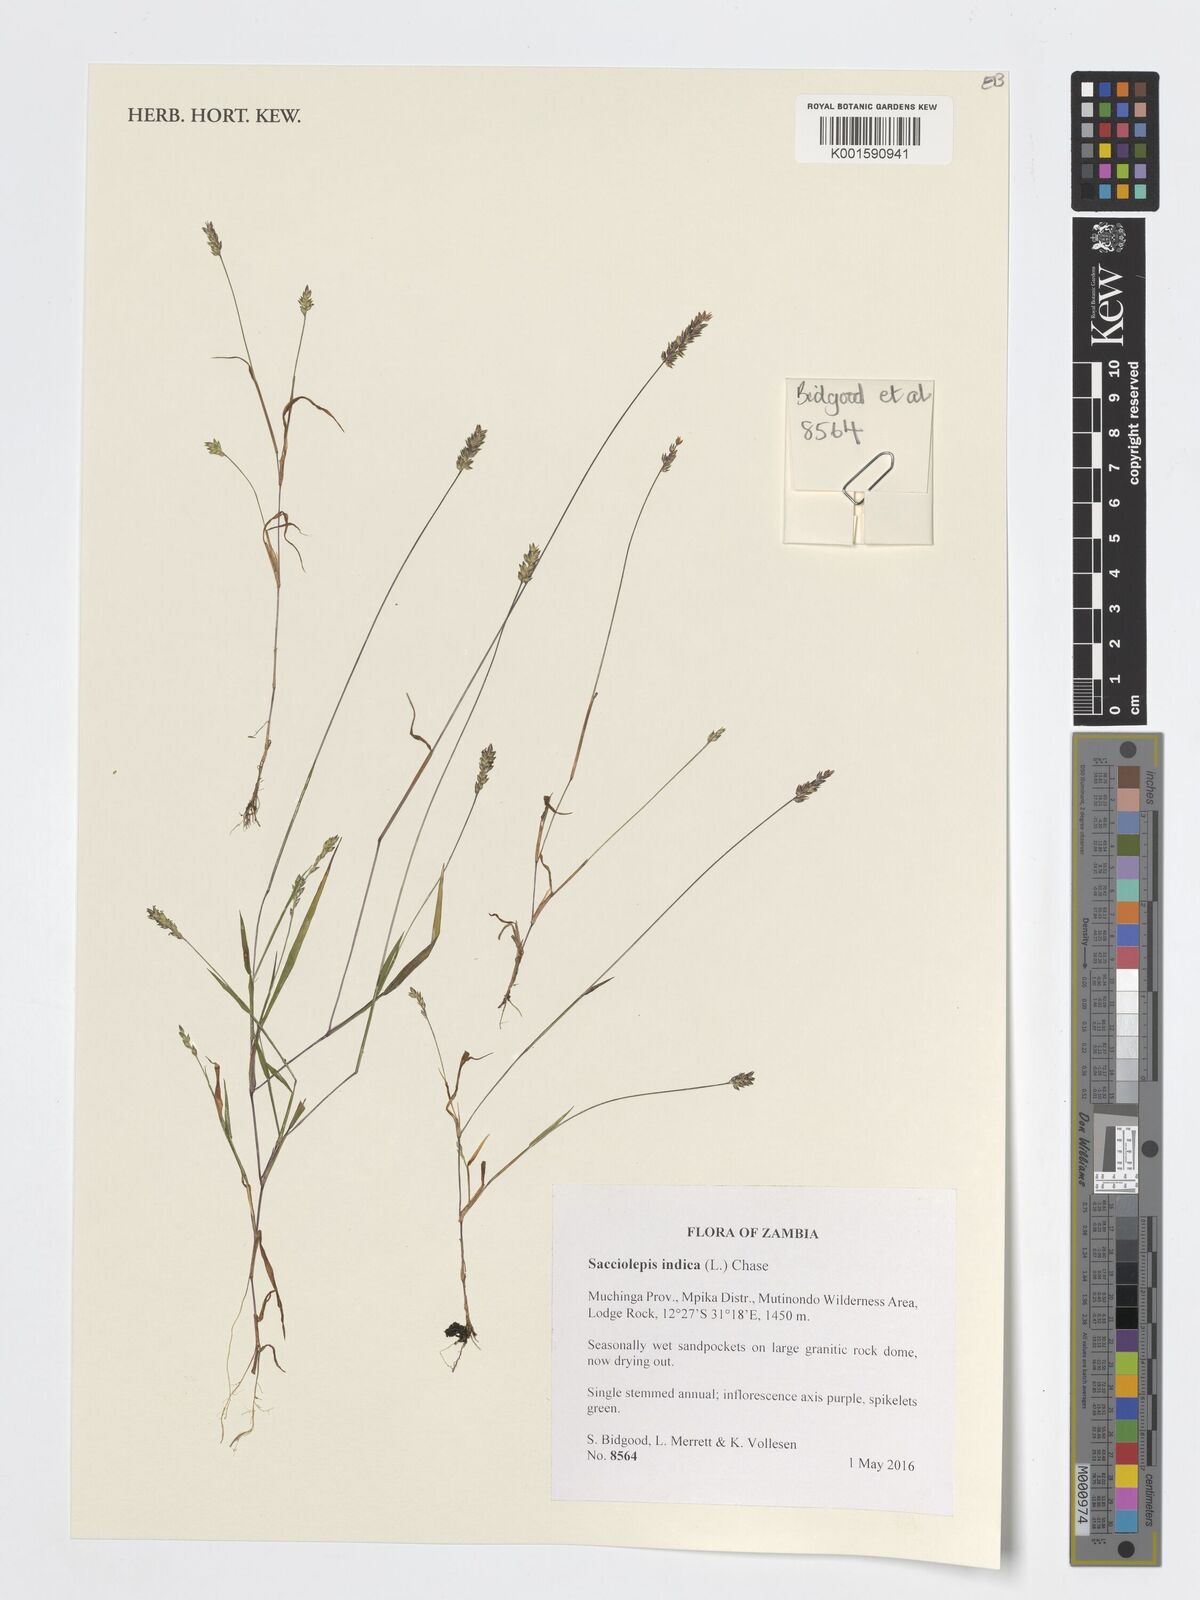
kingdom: Plantae
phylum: Tracheophyta
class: Liliopsida
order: Poales
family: Poaceae
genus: Sacciolepis
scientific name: Sacciolepis indica
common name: Glenwoodgrass
